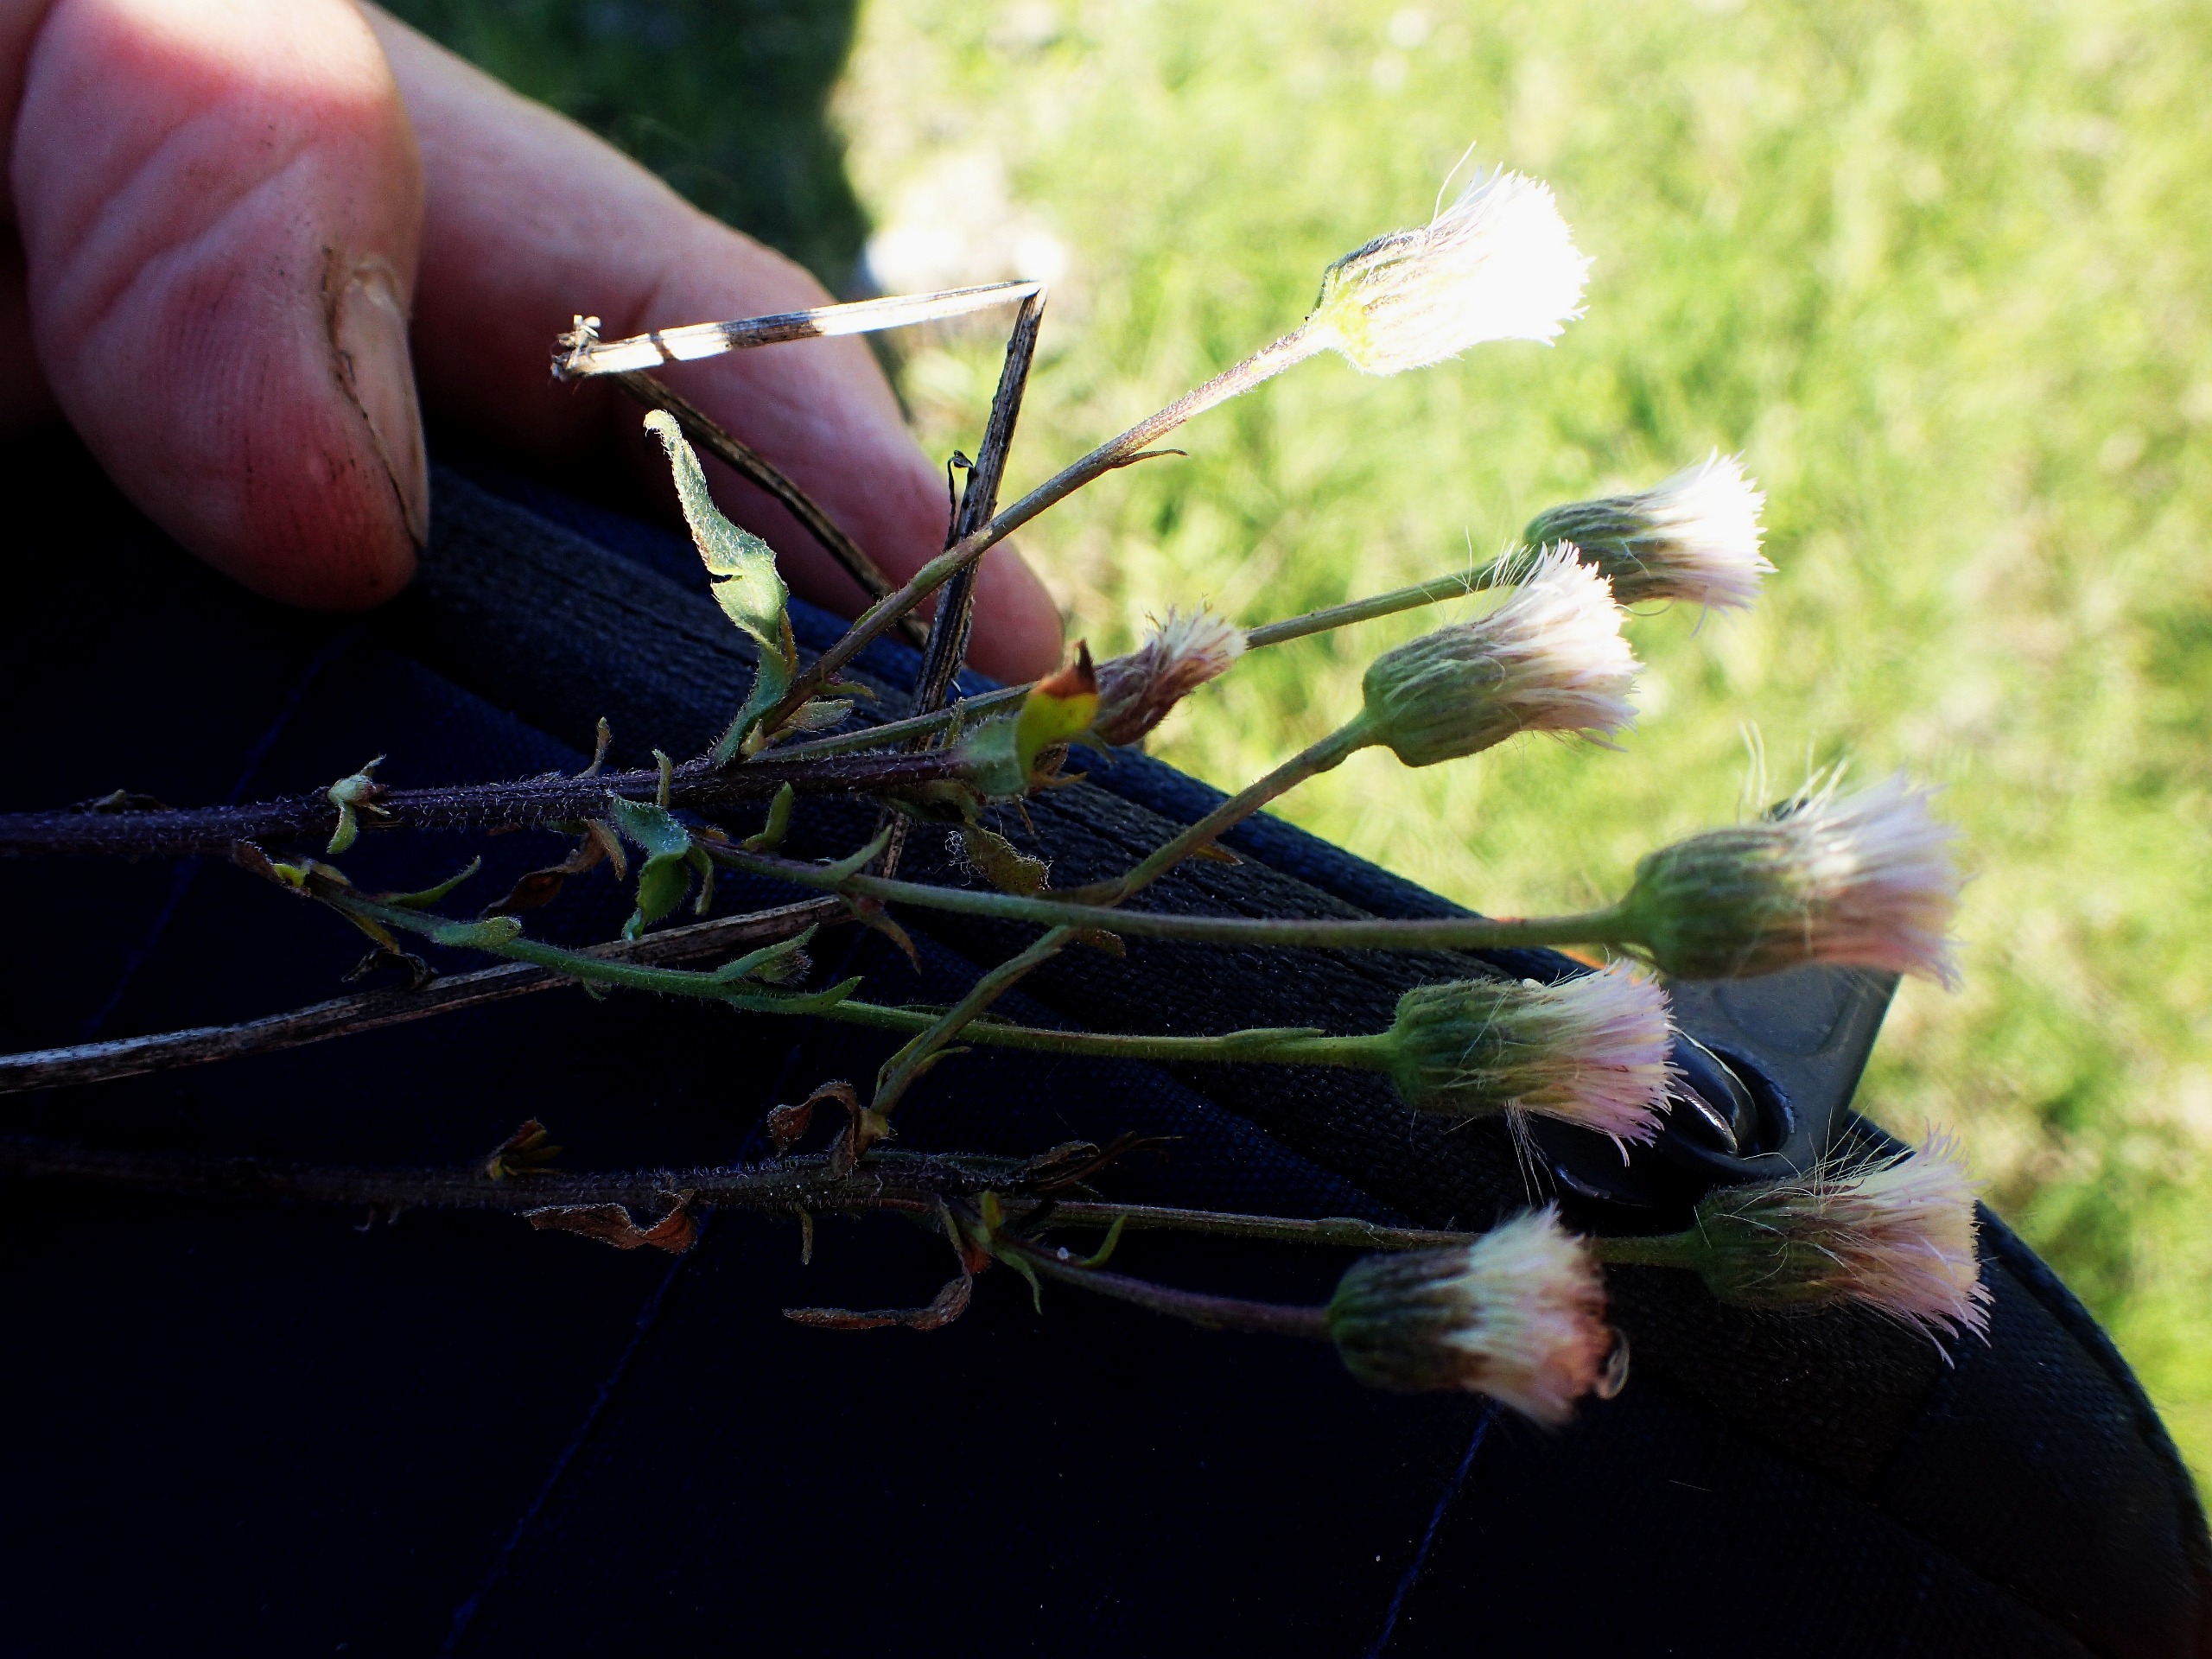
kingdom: Plantae
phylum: Tracheophyta
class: Magnoliopsida
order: Asterales
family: Asteraceae
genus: Erigeron
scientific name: Erigeron muralis
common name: Vreden bakkestjerne
